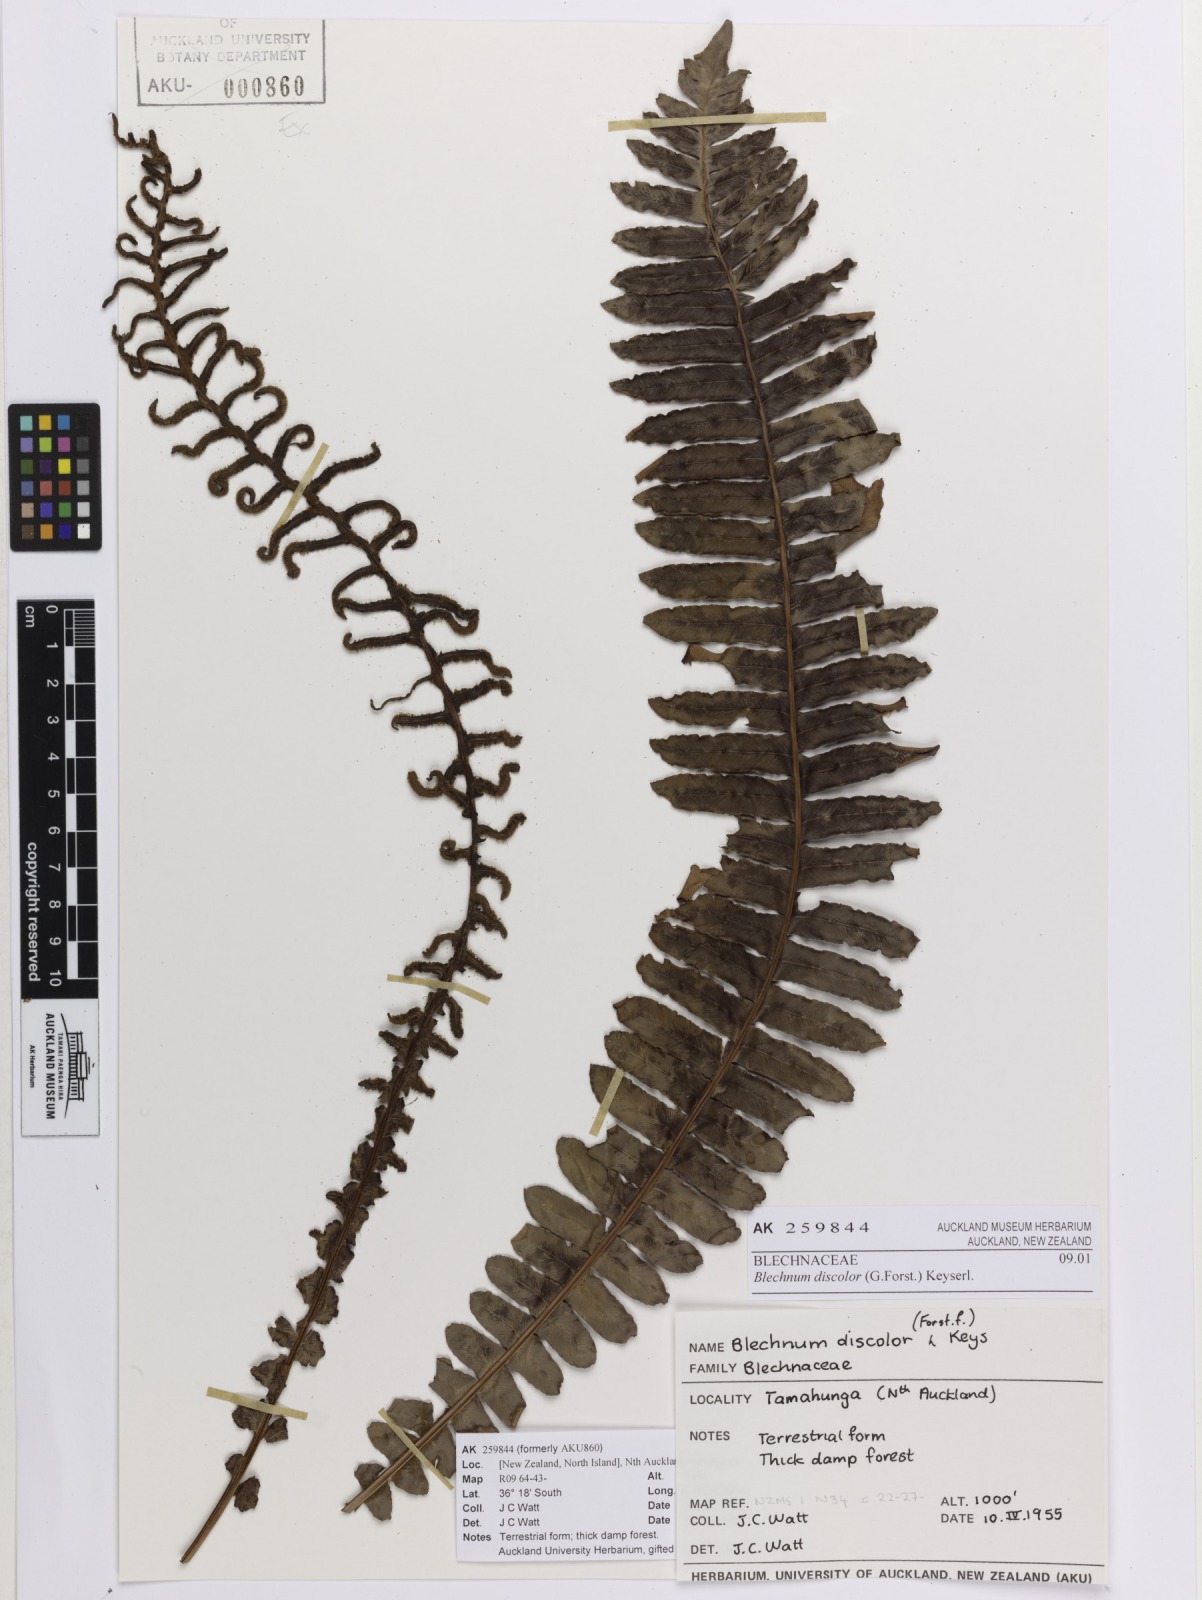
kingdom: Plantae
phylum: Tracheophyta
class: Polypodiopsida
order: Polypodiales
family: Blechnaceae
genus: Lomaria
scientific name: Lomaria discolor
